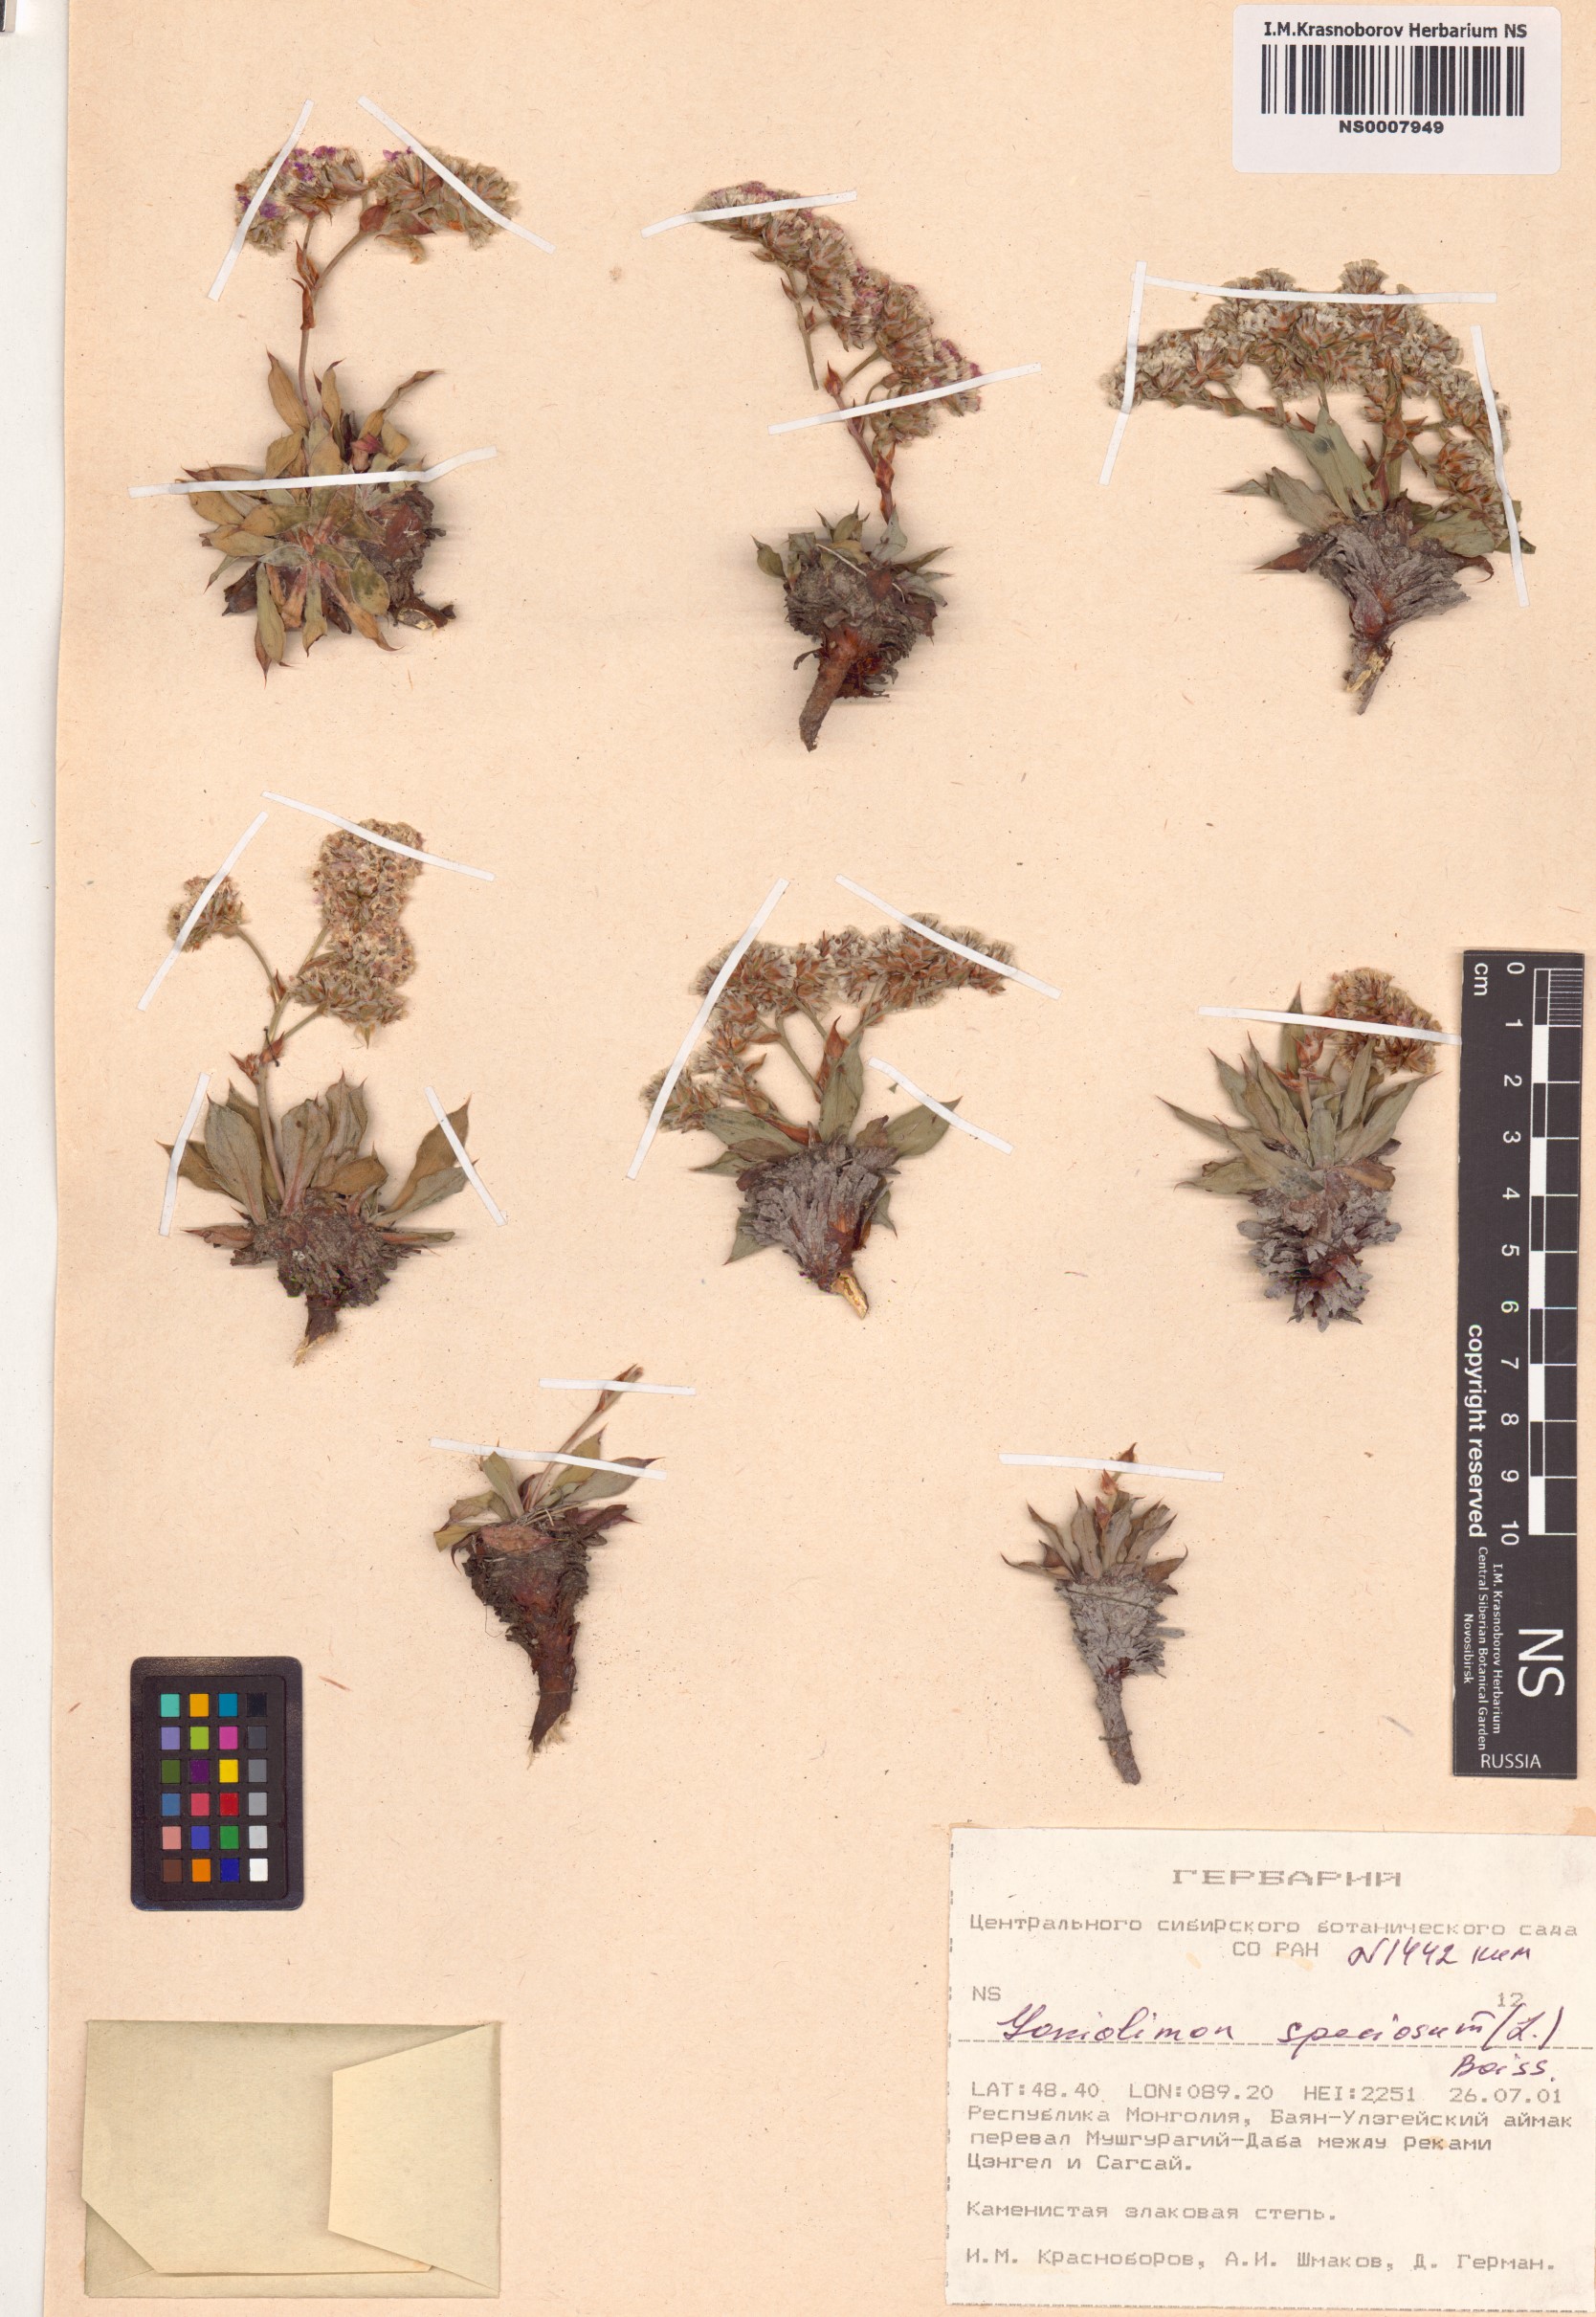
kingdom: Plantae
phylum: Tracheophyta
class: Magnoliopsida
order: Caryophyllales
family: Plumbaginaceae
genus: Goniolimon
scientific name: Goniolimon speciosum
